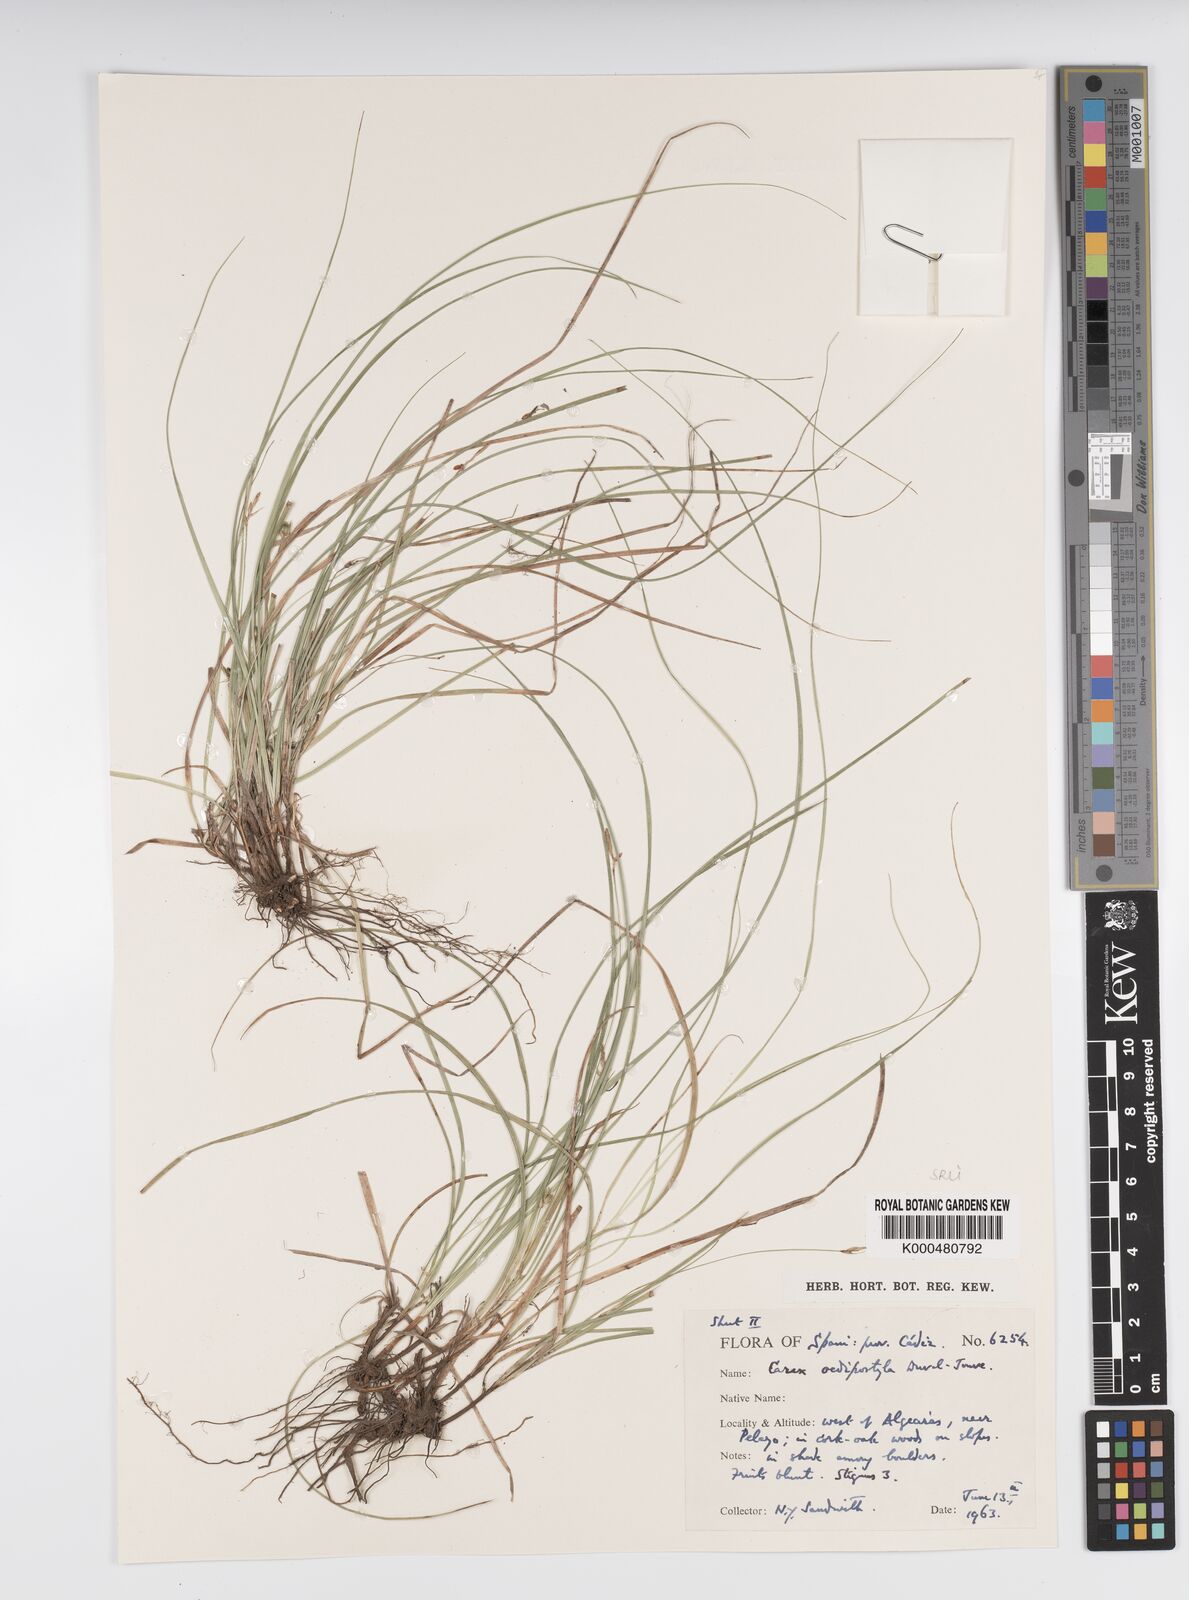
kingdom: Plantae
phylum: Tracheophyta
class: Liliopsida
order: Poales
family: Cyperaceae
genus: Carex
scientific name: Carex oedipostyla
